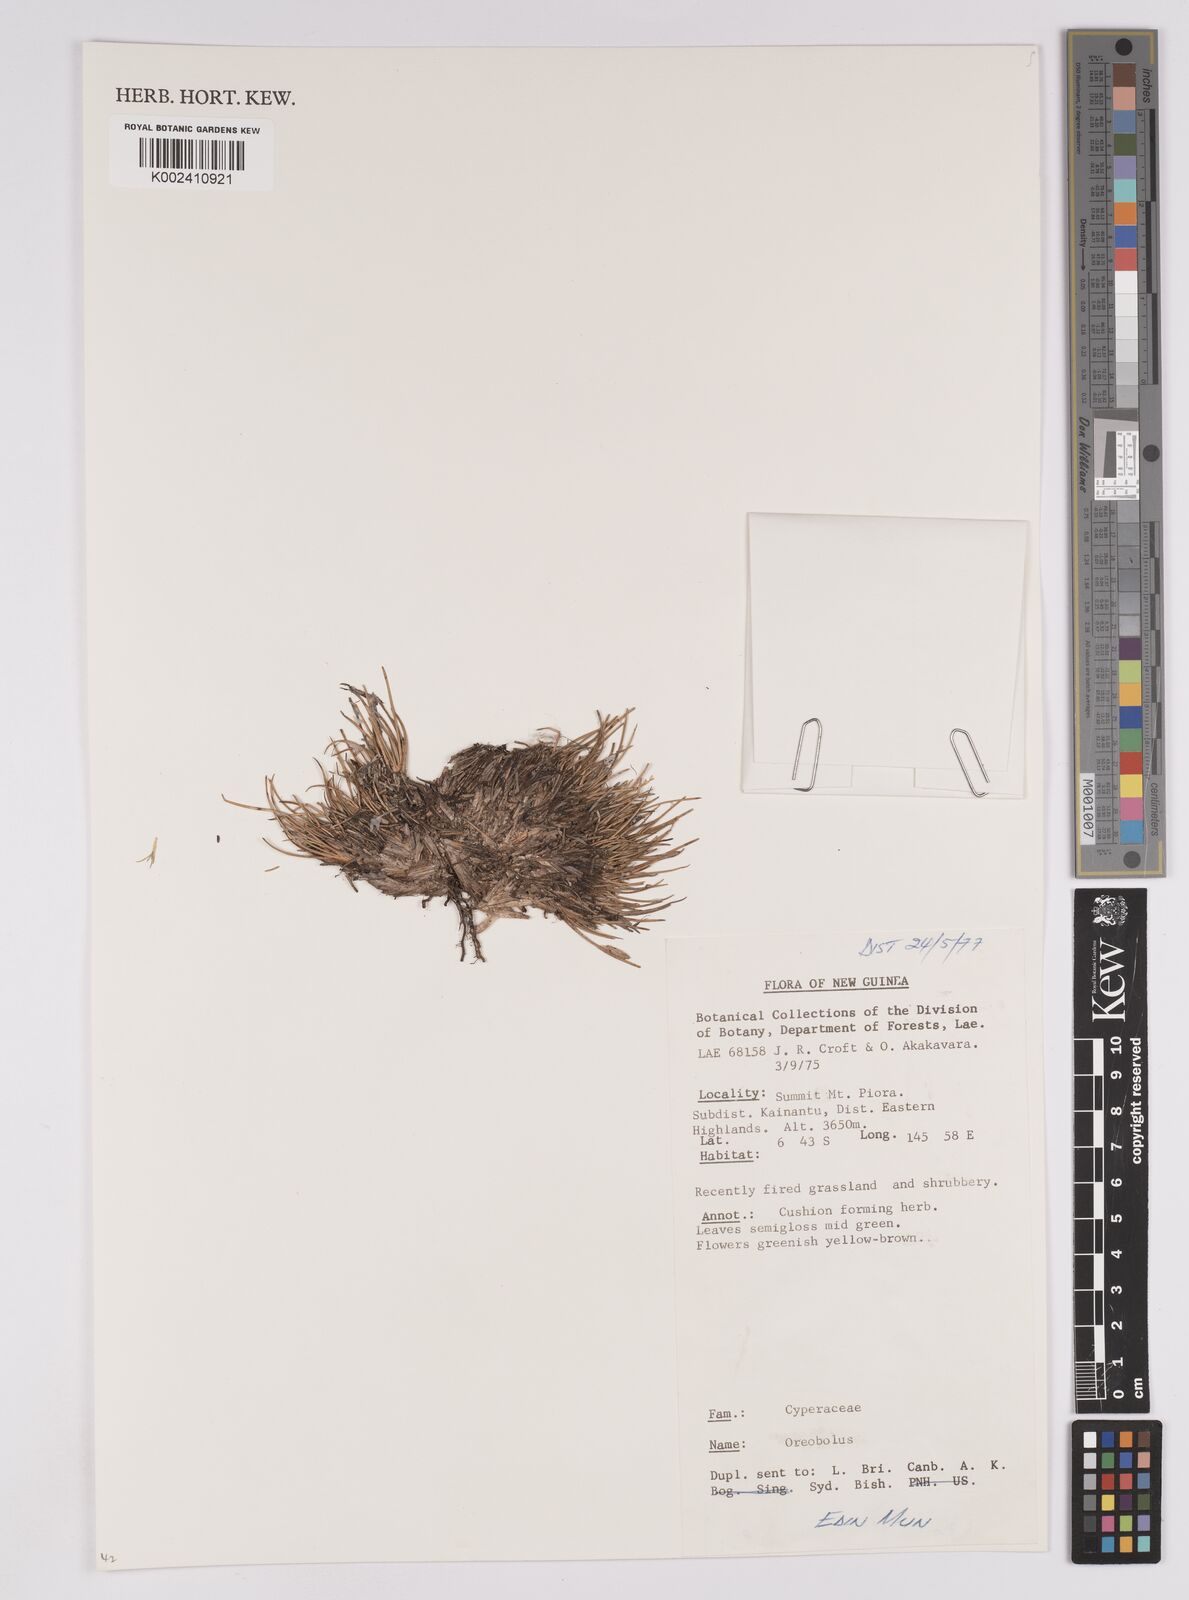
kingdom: Plantae
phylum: Tracheophyta
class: Liliopsida
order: Poales
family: Cyperaceae
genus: Oreobolus
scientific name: Oreobolus
